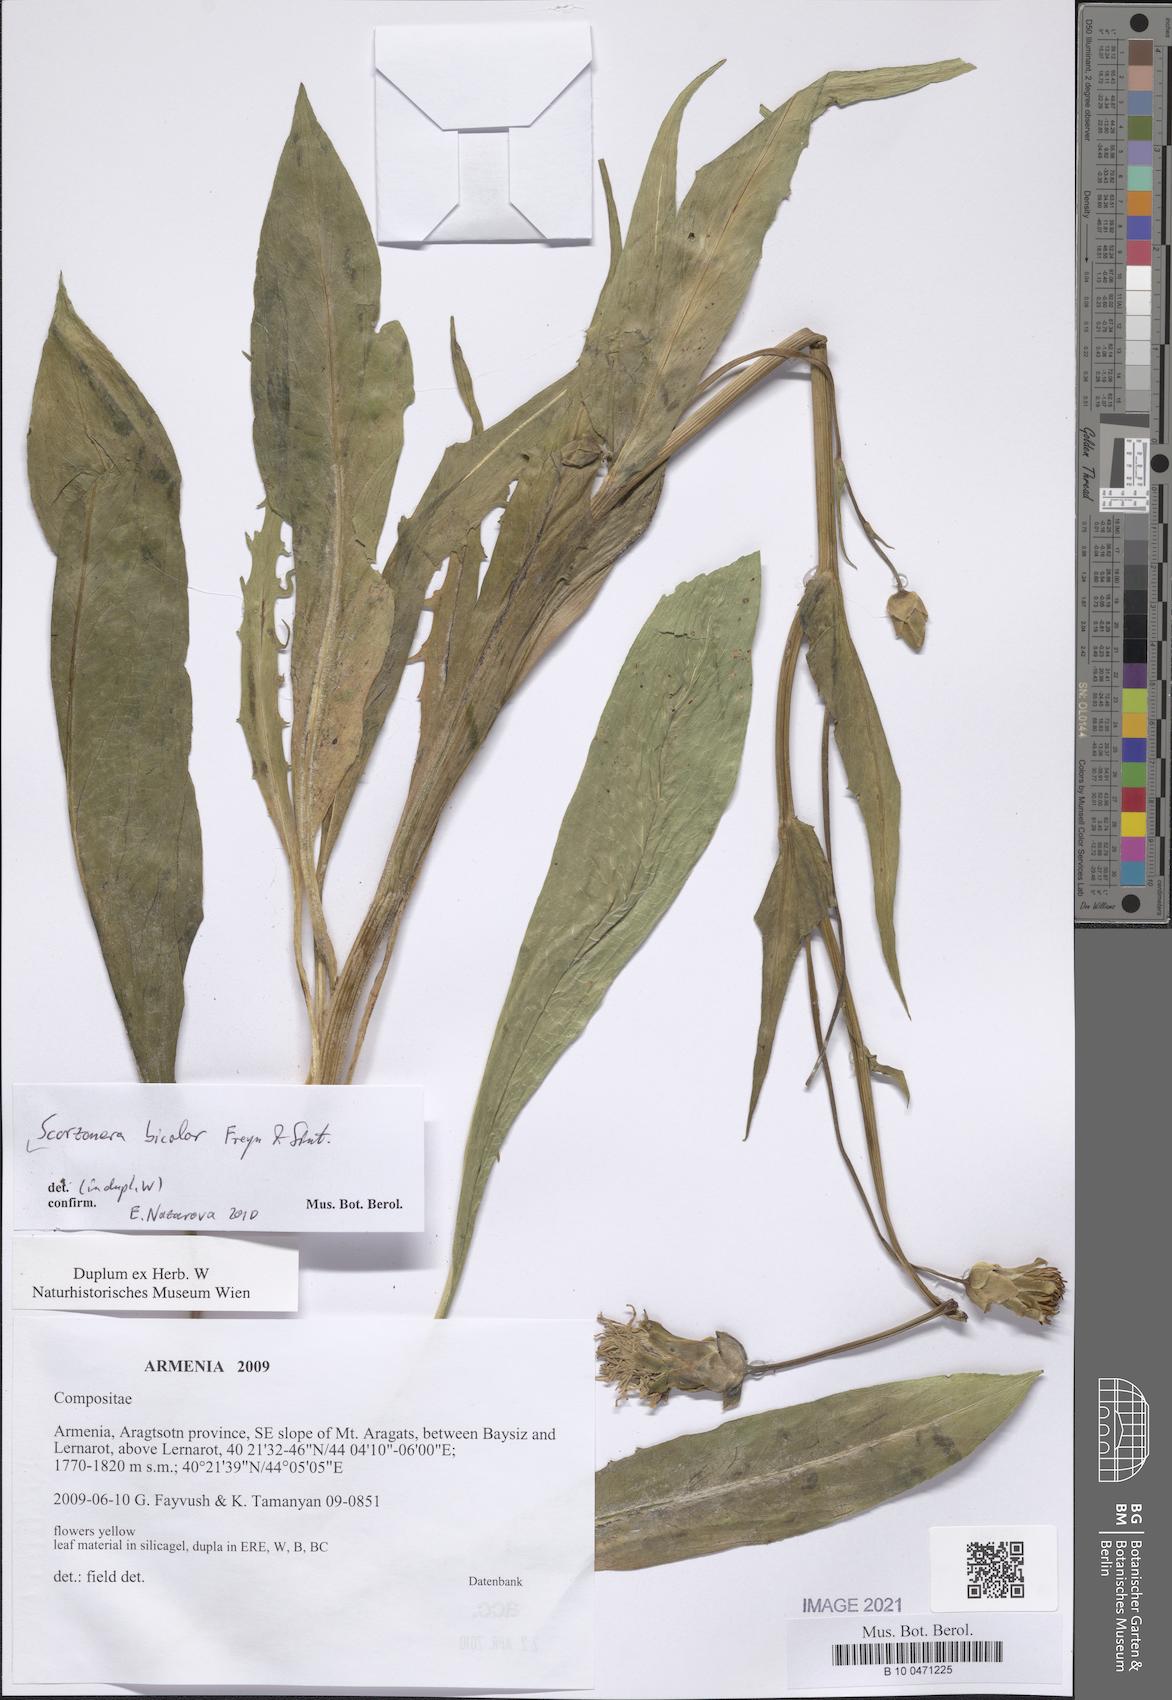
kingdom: Plantae
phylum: Tracheophyta
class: Magnoliopsida
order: Asterales
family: Asteraceae
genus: Aslia
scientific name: Aslia bicolor
